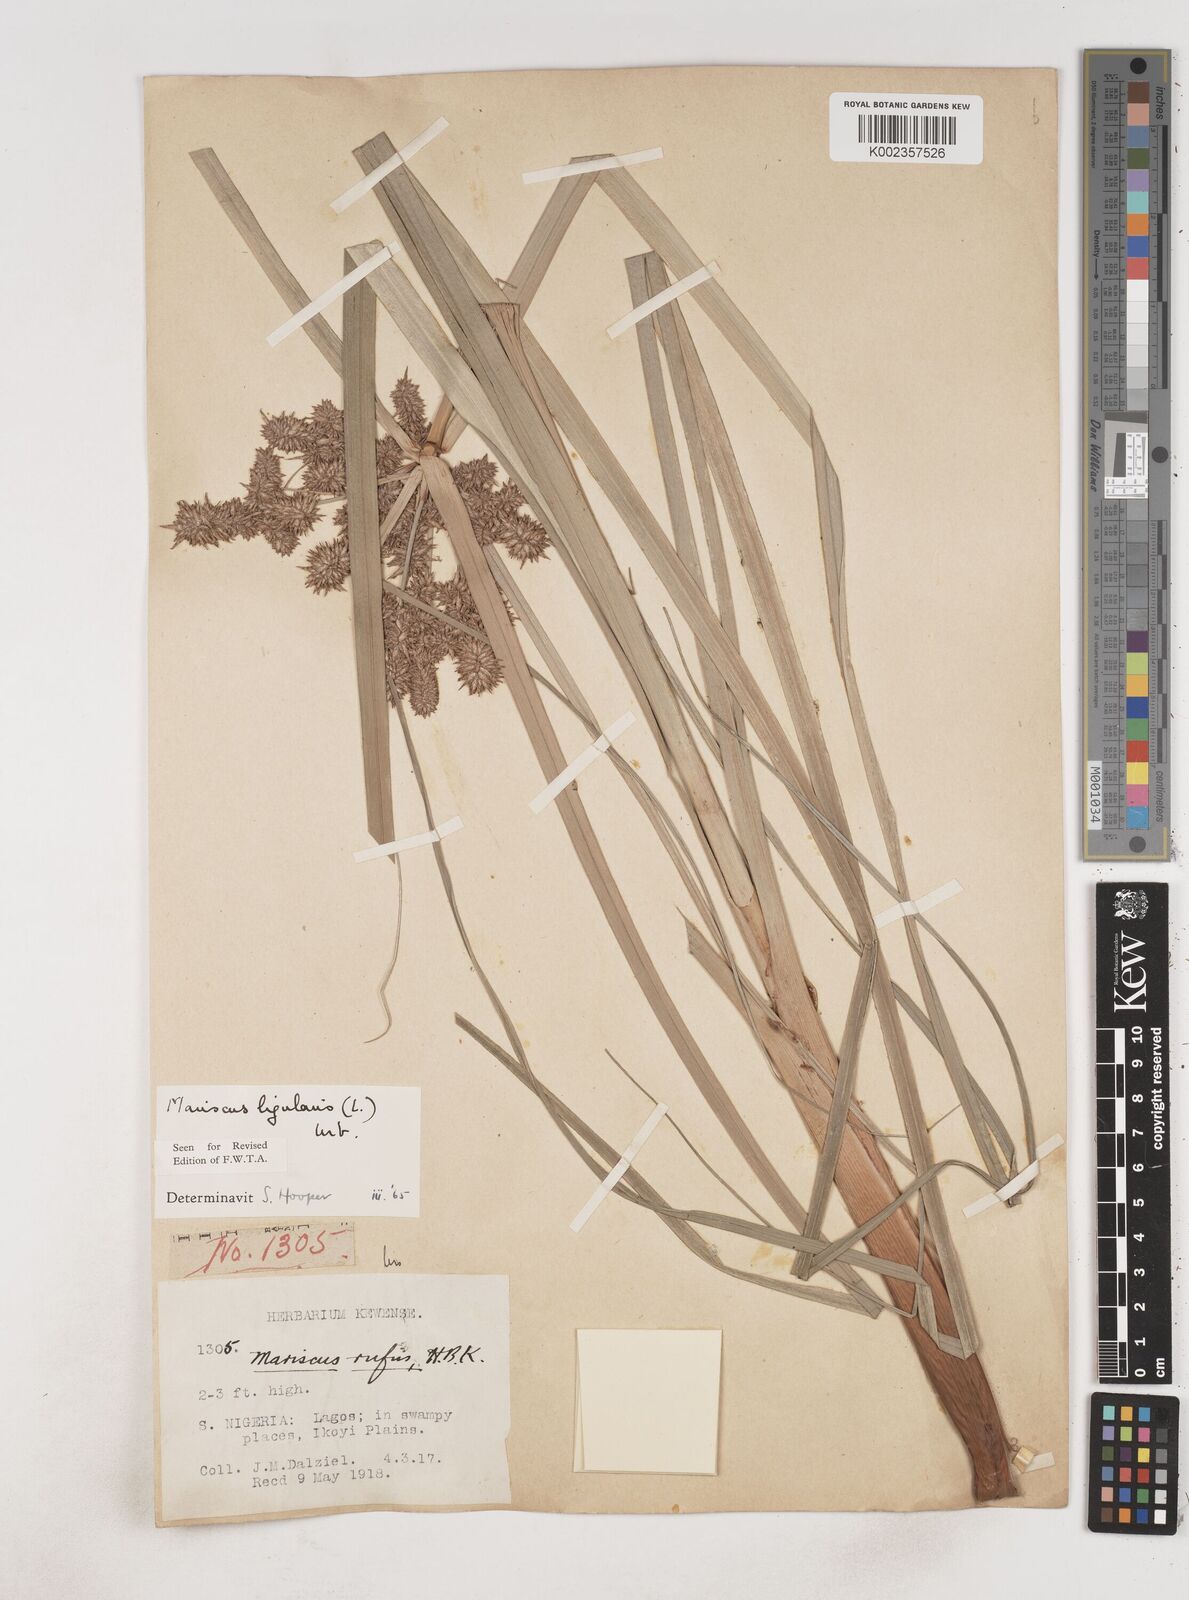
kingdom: Plantae
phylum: Tracheophyta
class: Liliopsida
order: Poales
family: Cyperaceae
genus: Cyperus
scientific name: Cyperus ligularis
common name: Swamp flat sedge
